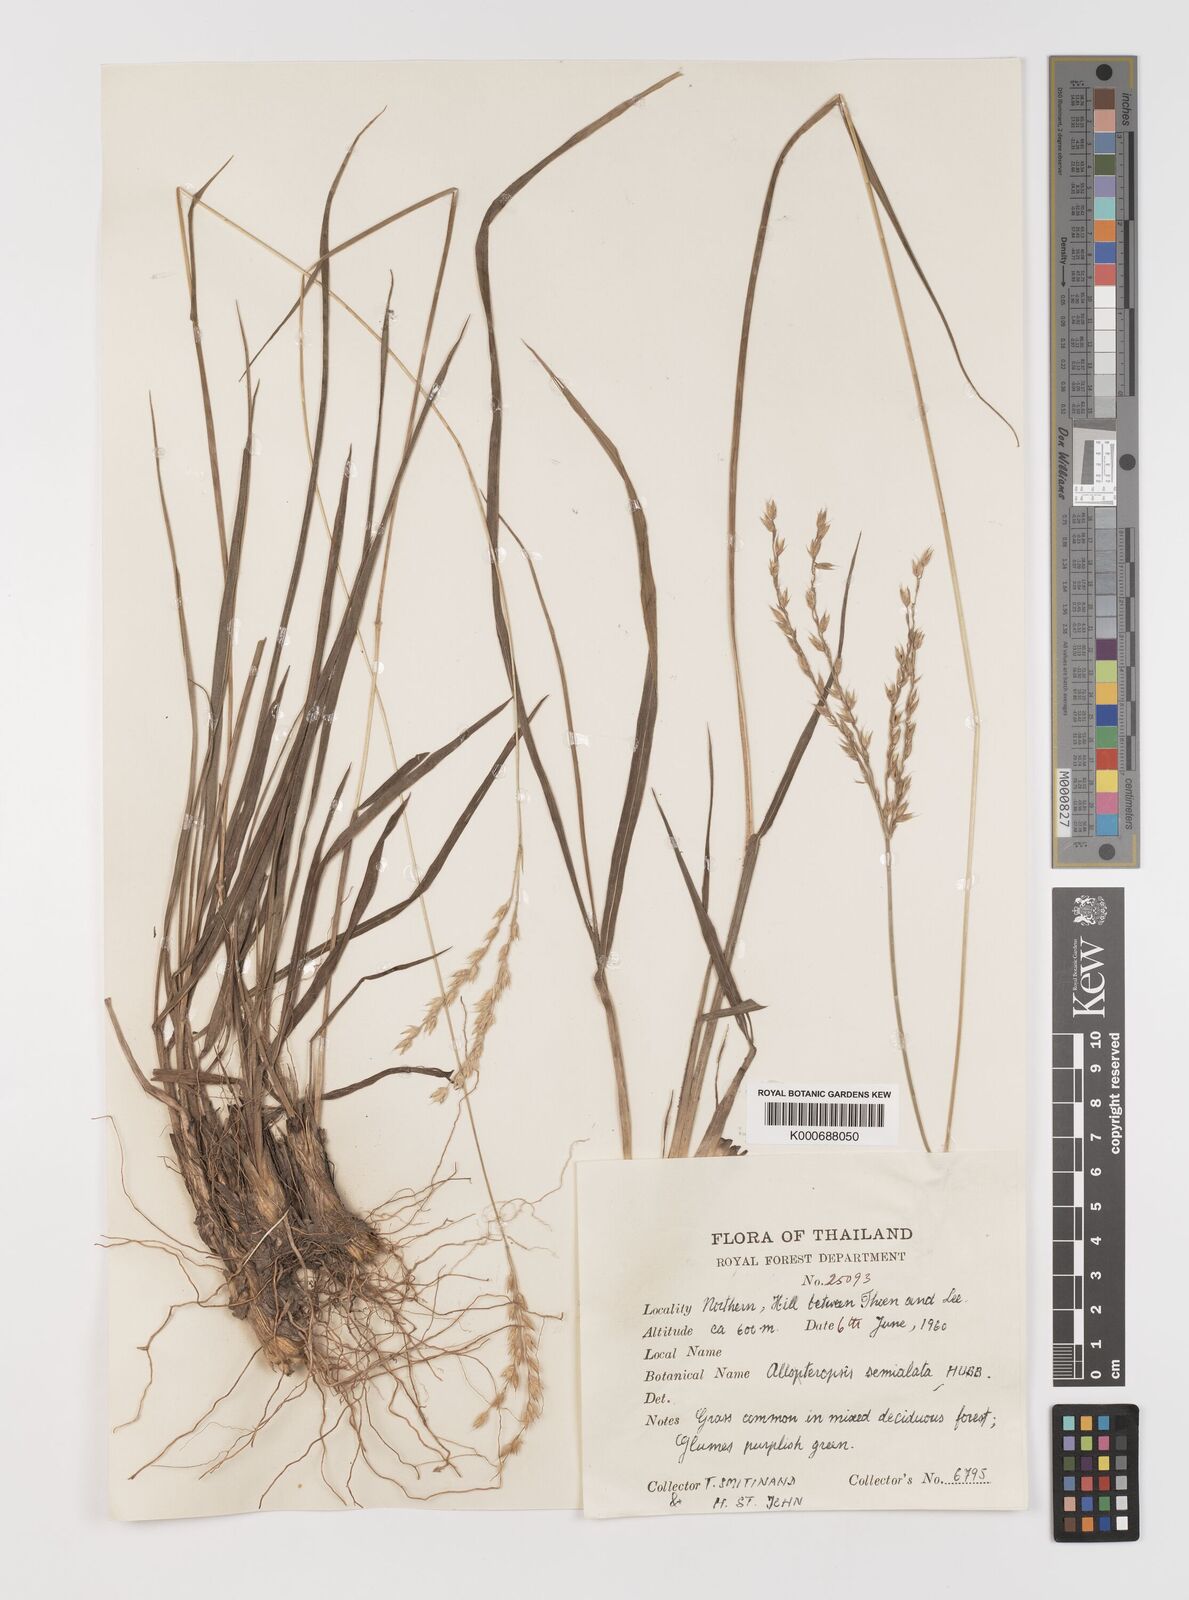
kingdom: Plantae
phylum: Tracheophyta
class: Liliopsida
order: Poales
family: Poaceae
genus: Alloteropsis
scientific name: Alloteropsis semialata
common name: Cockatoo grass
